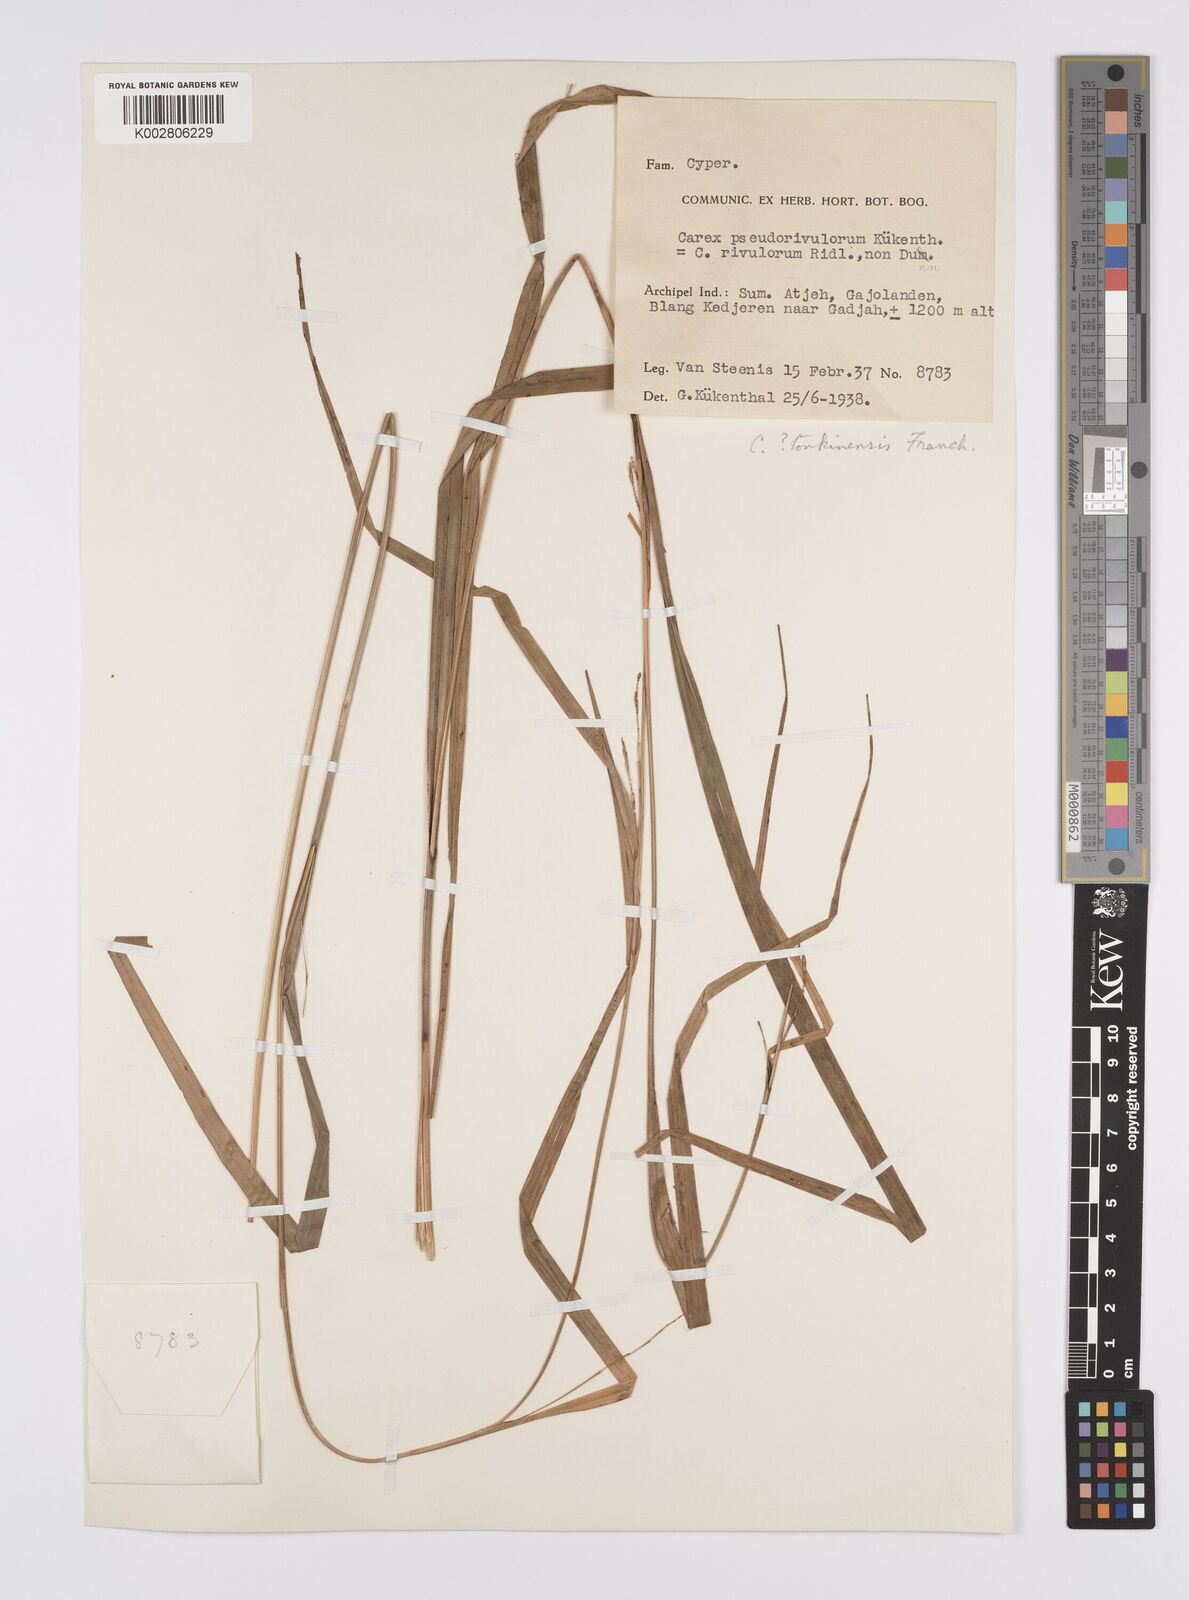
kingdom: Plantae
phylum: Tracheophyta
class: Liliopsida
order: Poales
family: Cyperaceae
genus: Carex
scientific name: Carex perakensis
